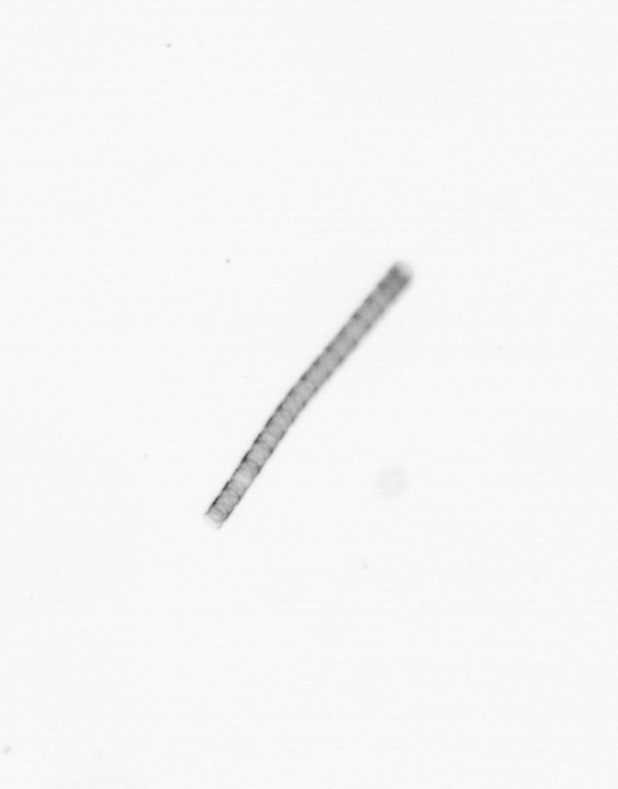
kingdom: Chromista
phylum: Ochrophyta
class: Bacillariophyceae
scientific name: Bacillariophyceae
